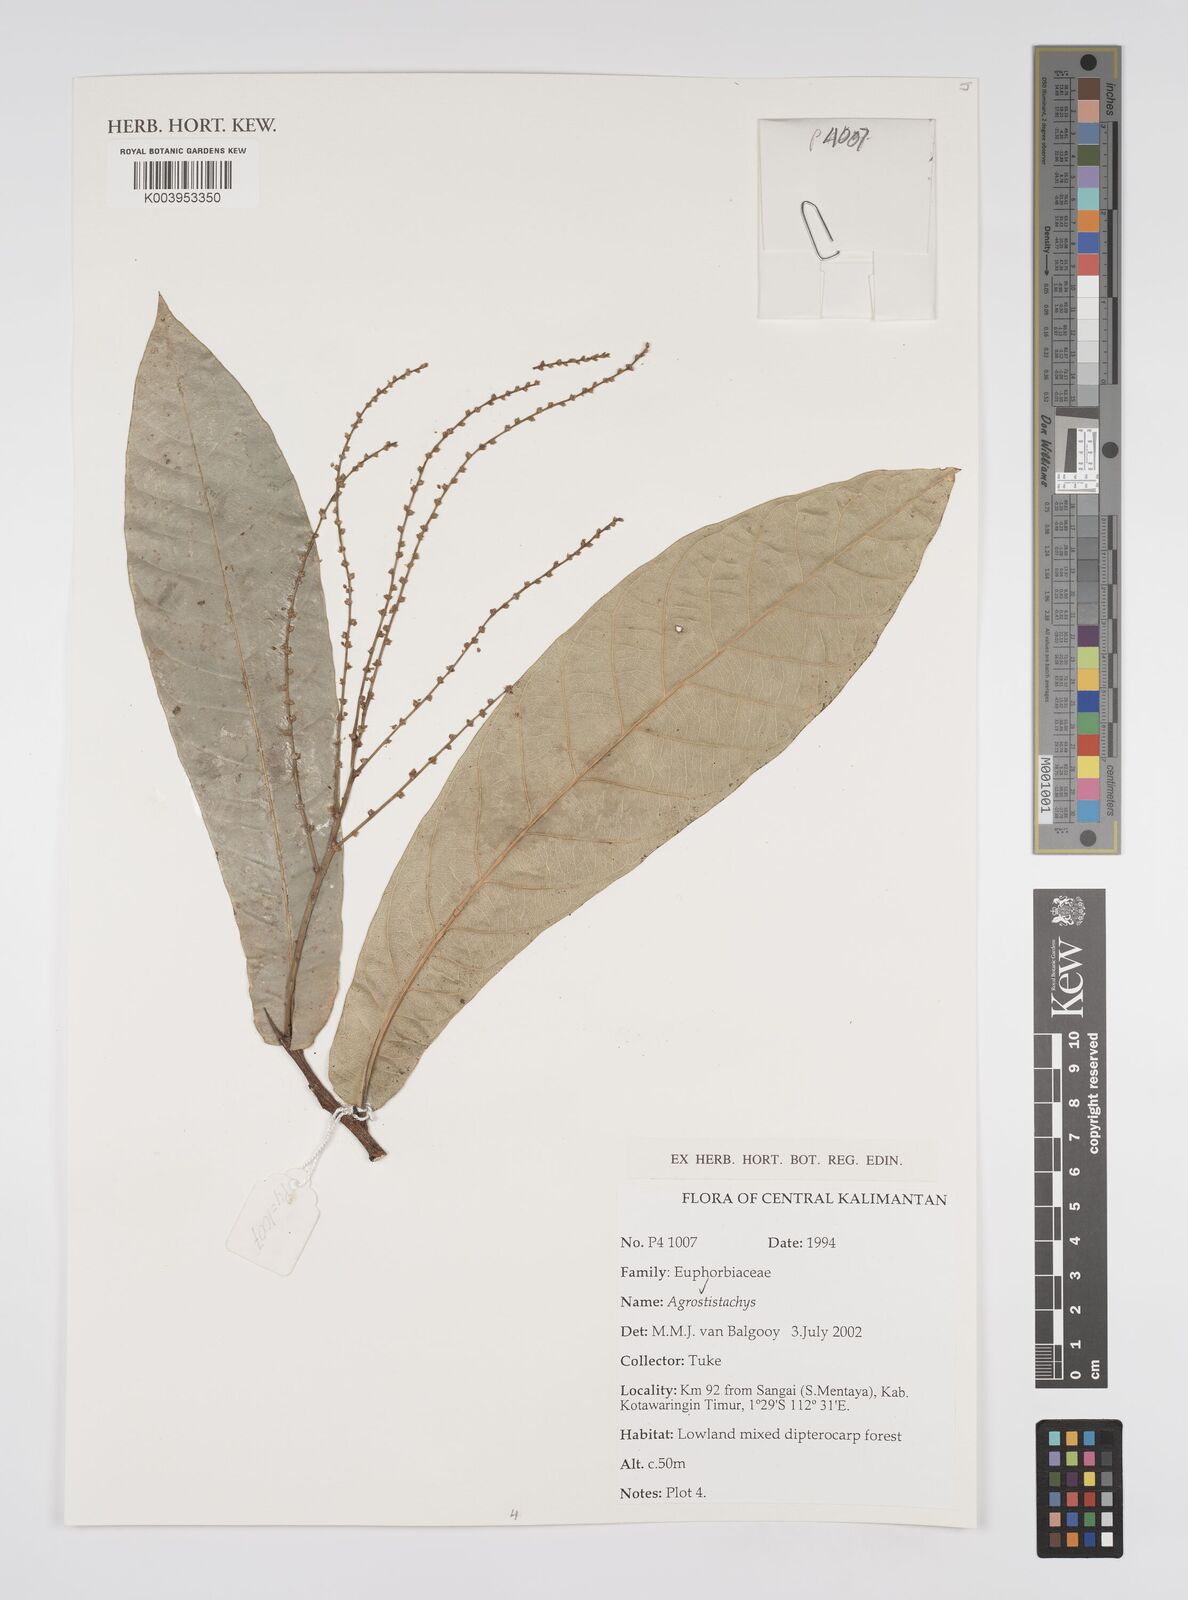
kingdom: Plantae
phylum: Tracheophyta
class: Magnoliopsida
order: Malpighiales
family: Euphorbiaceae
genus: Agrostistachys
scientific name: Agrostistachys
